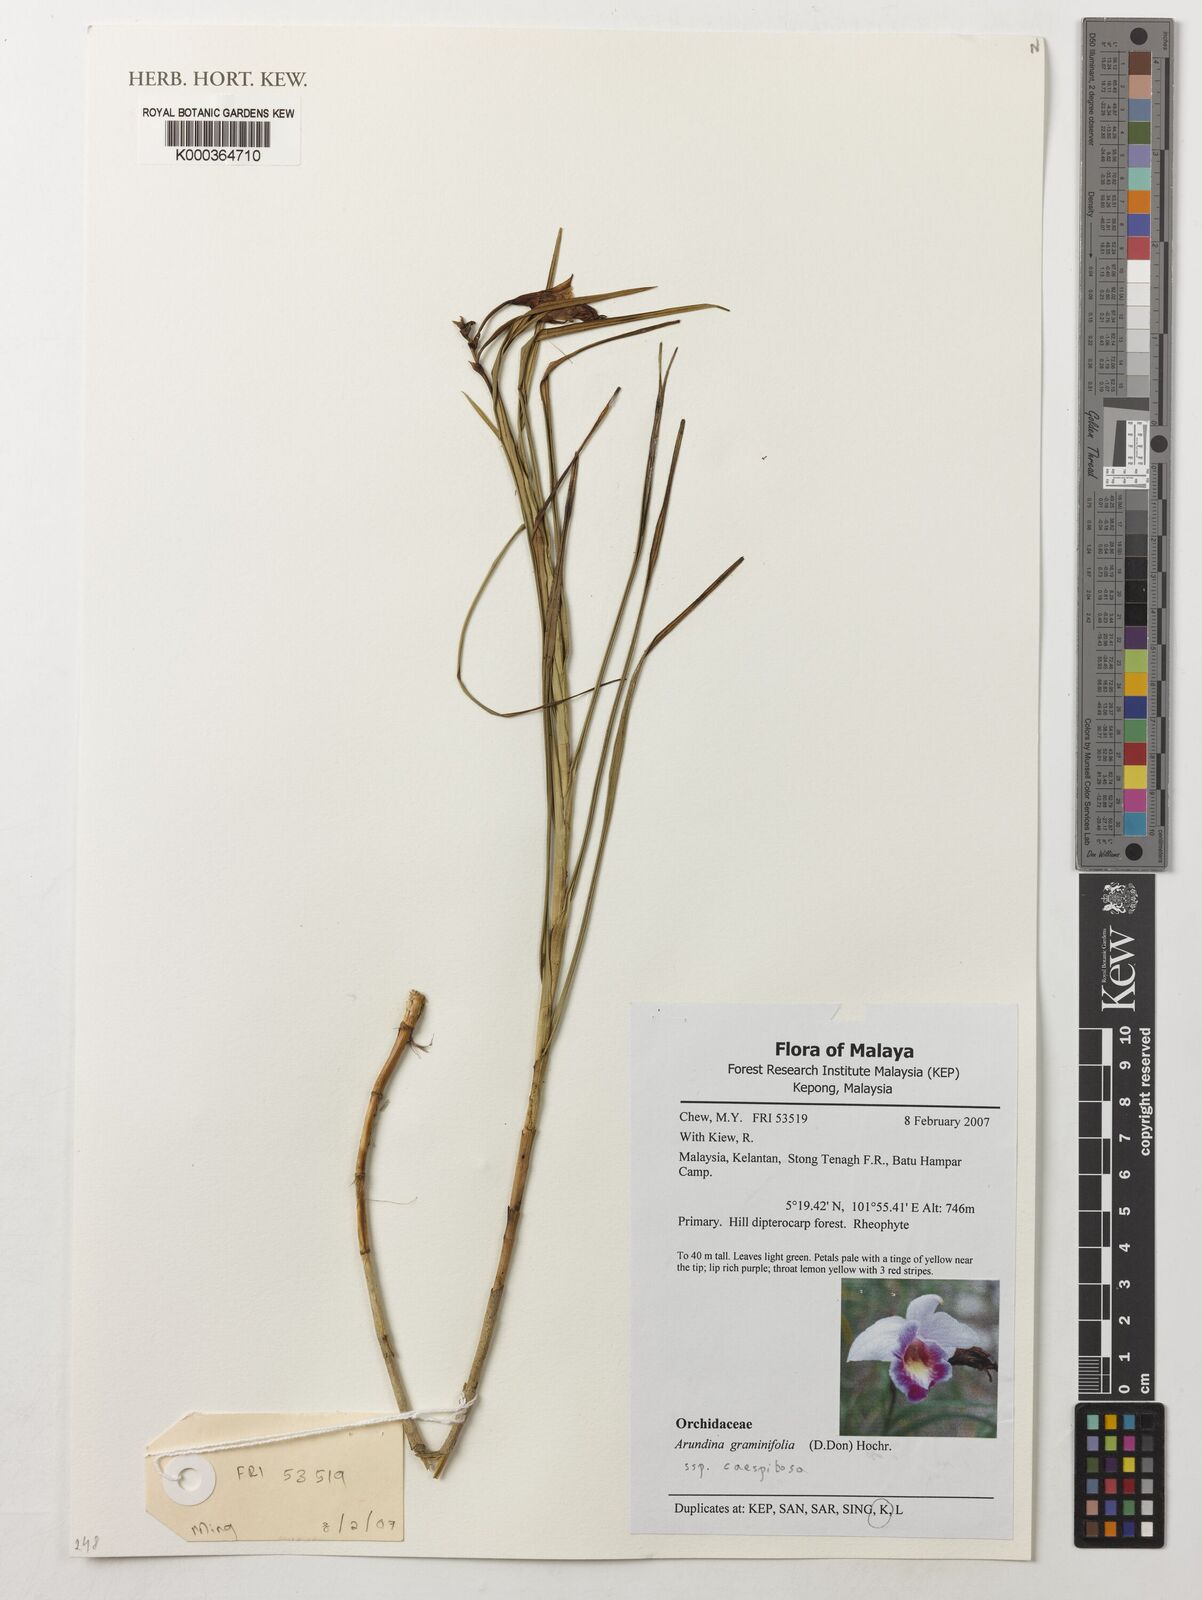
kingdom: Plantae
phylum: Tracheophyta
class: Liliopsida
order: Asparagales
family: Orchidaceae
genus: Arundina
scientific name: Arundina graminifolia
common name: Bamboo orchid
